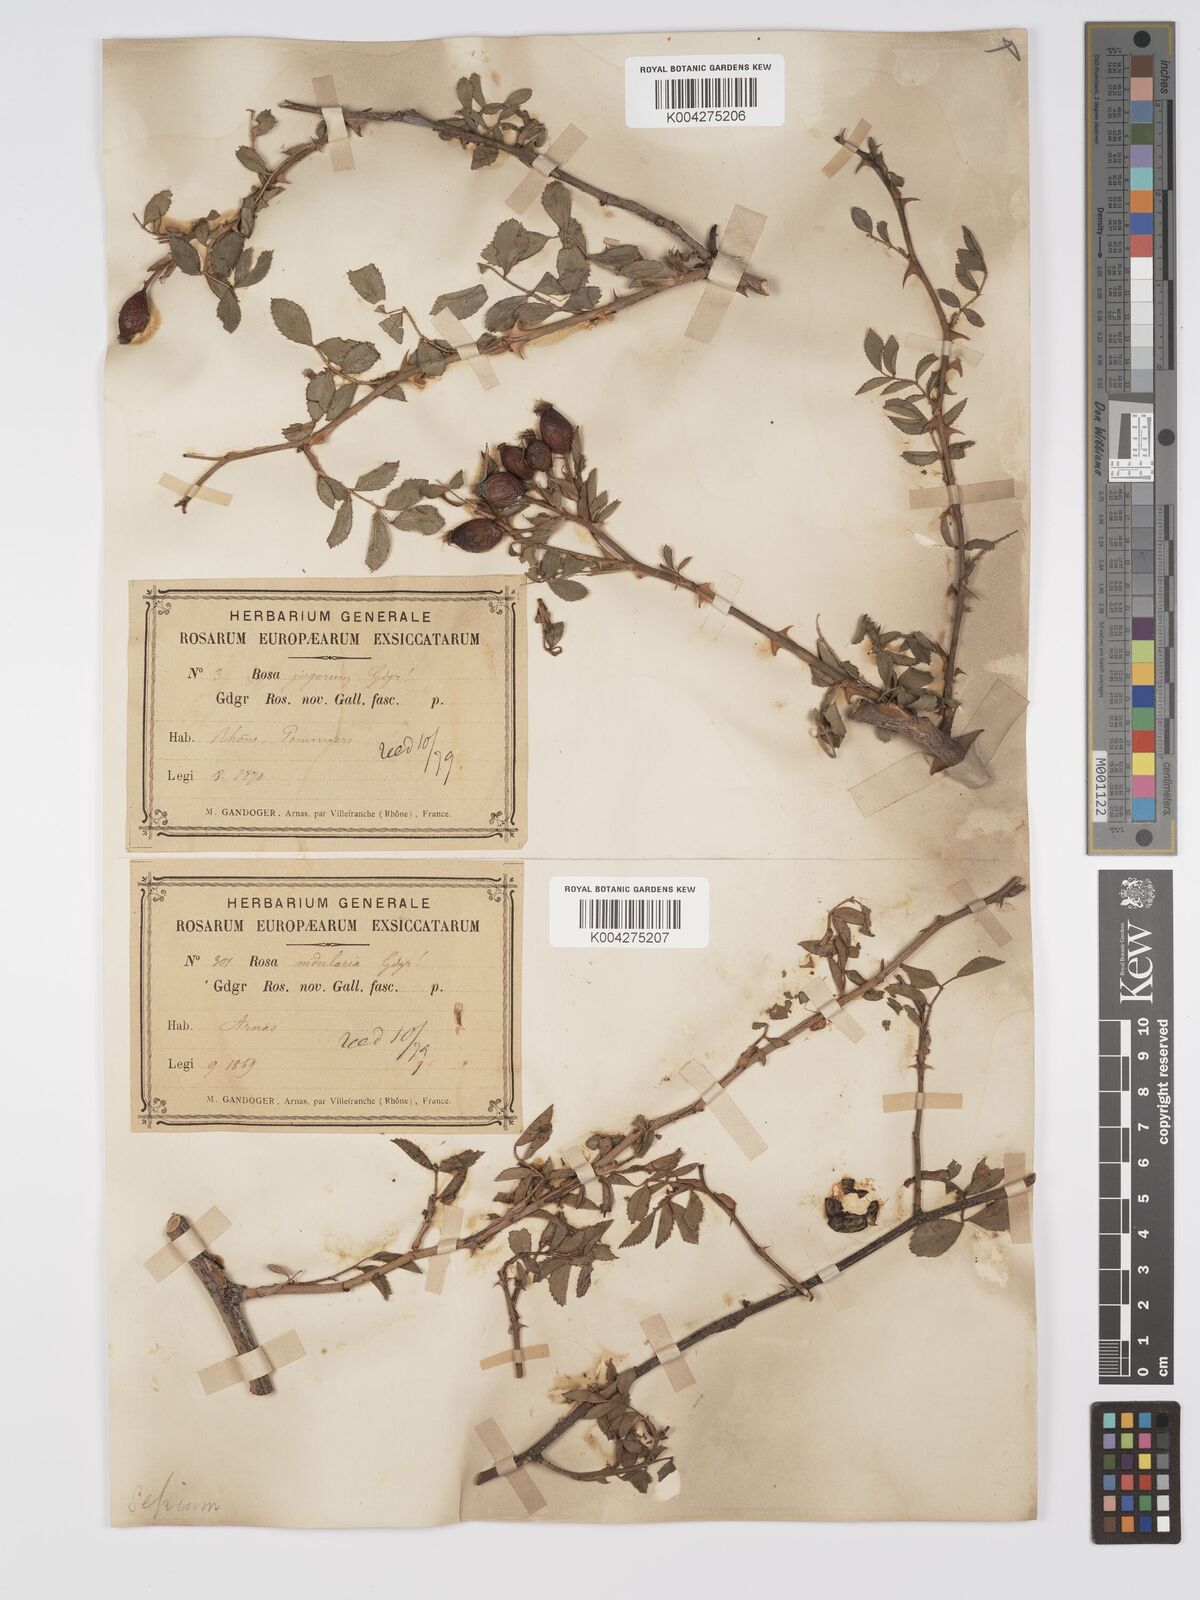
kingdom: Plantae
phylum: Tracheophyta
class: Magnoliopsida
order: Rosales
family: Rosaceae
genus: Rosa
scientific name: Rosa
